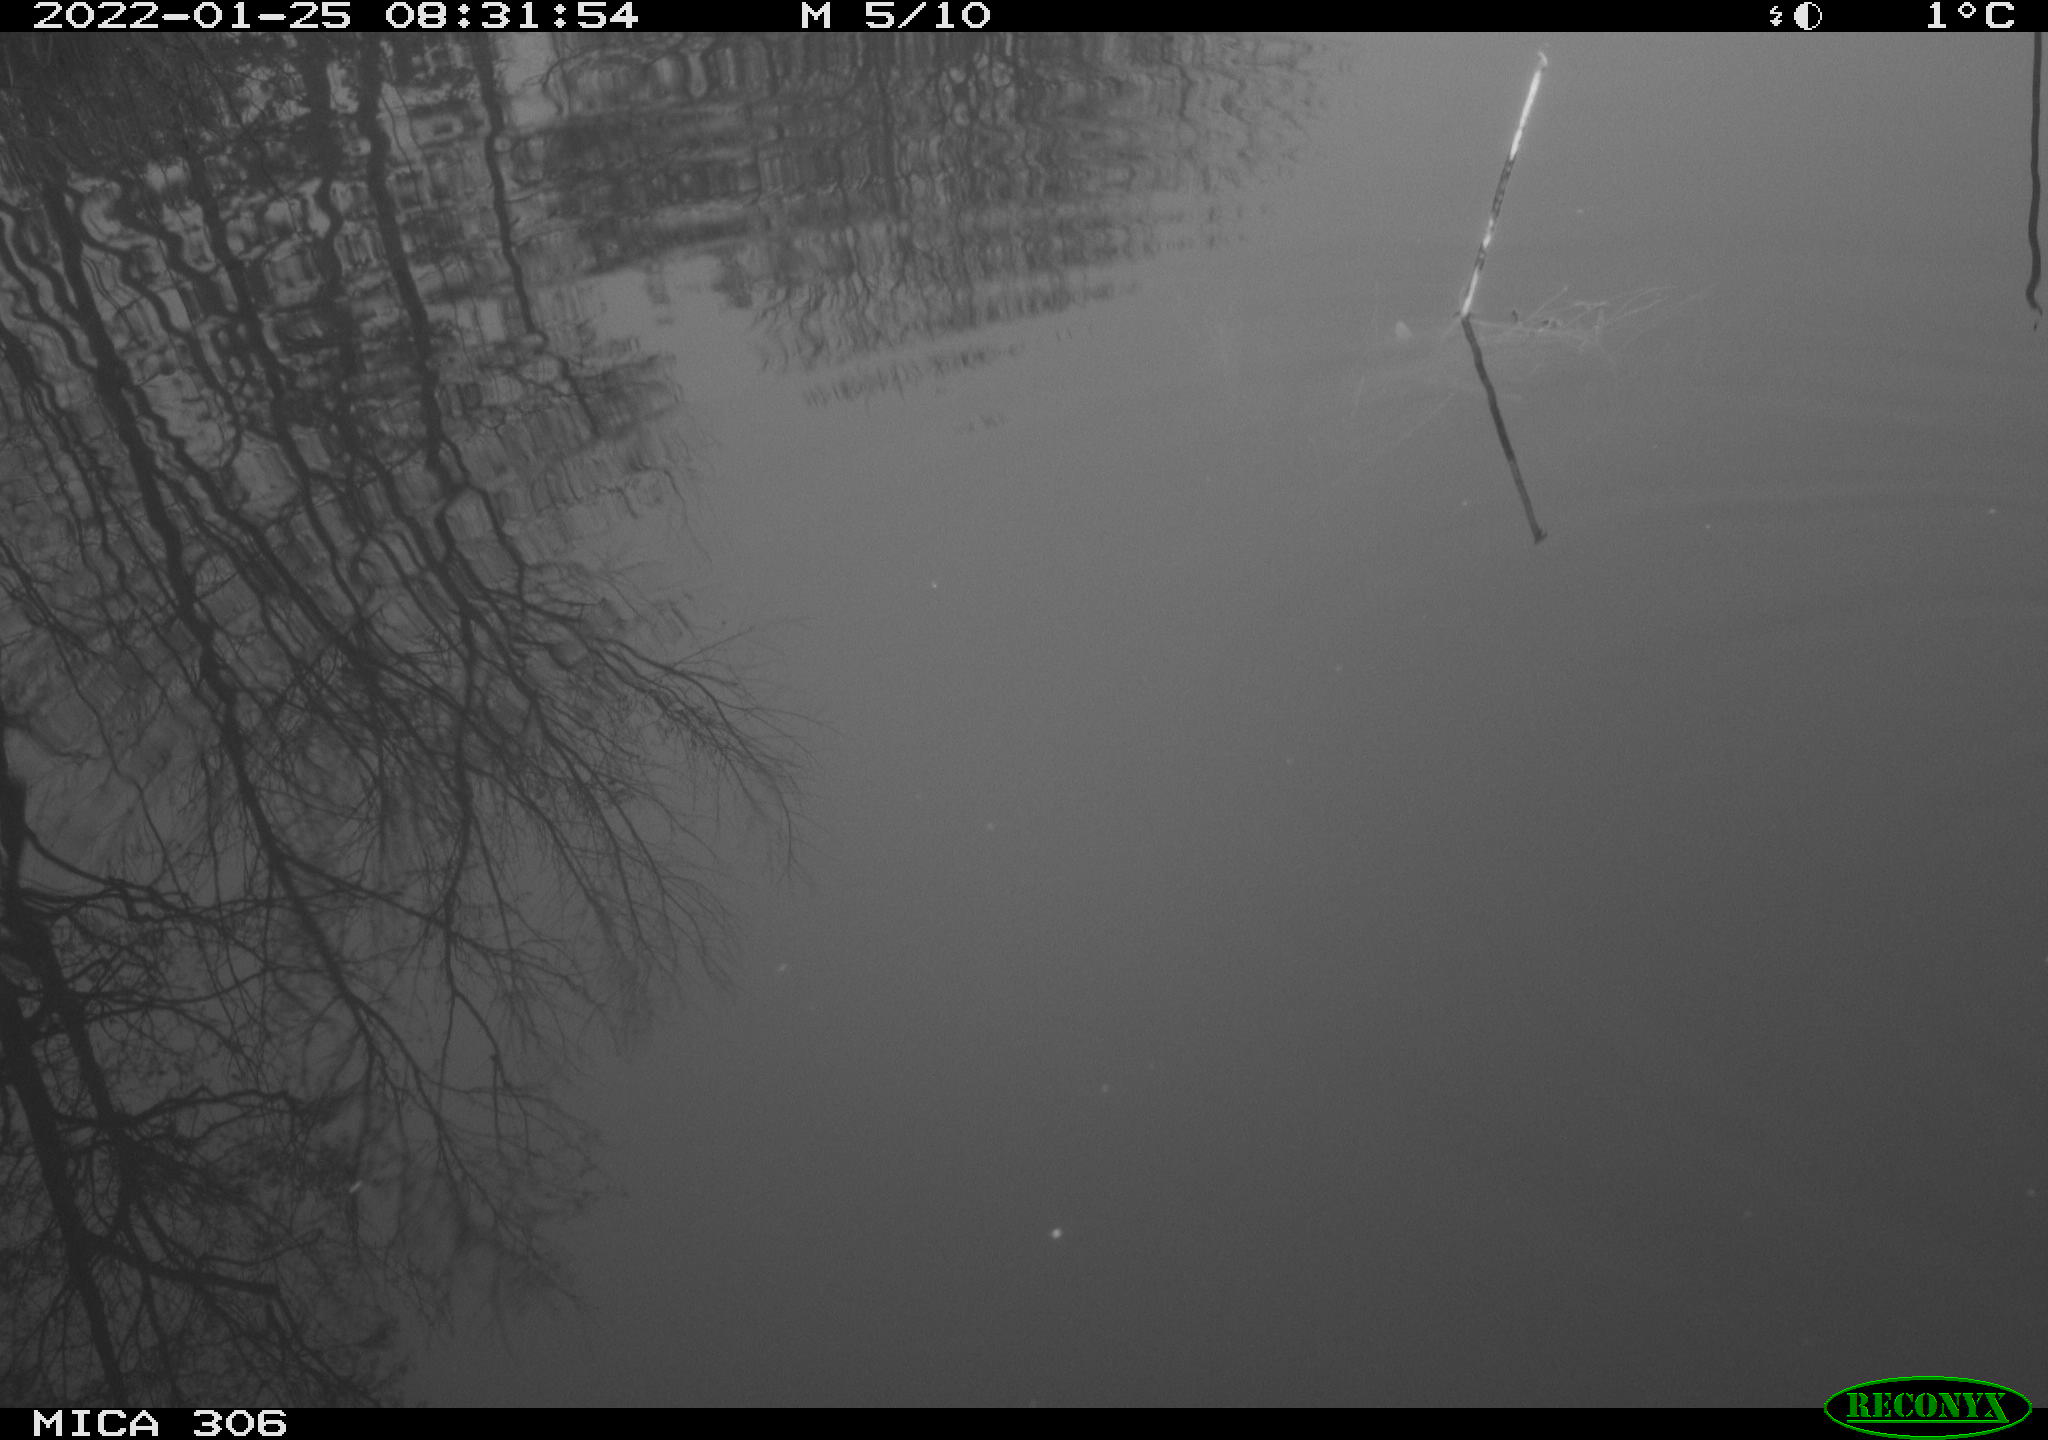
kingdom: Animalia
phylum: Chordata
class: Aves
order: Gruiformes
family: Rallidae
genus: Gallinula
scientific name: Gallinula chloropus
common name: Common moorhen
